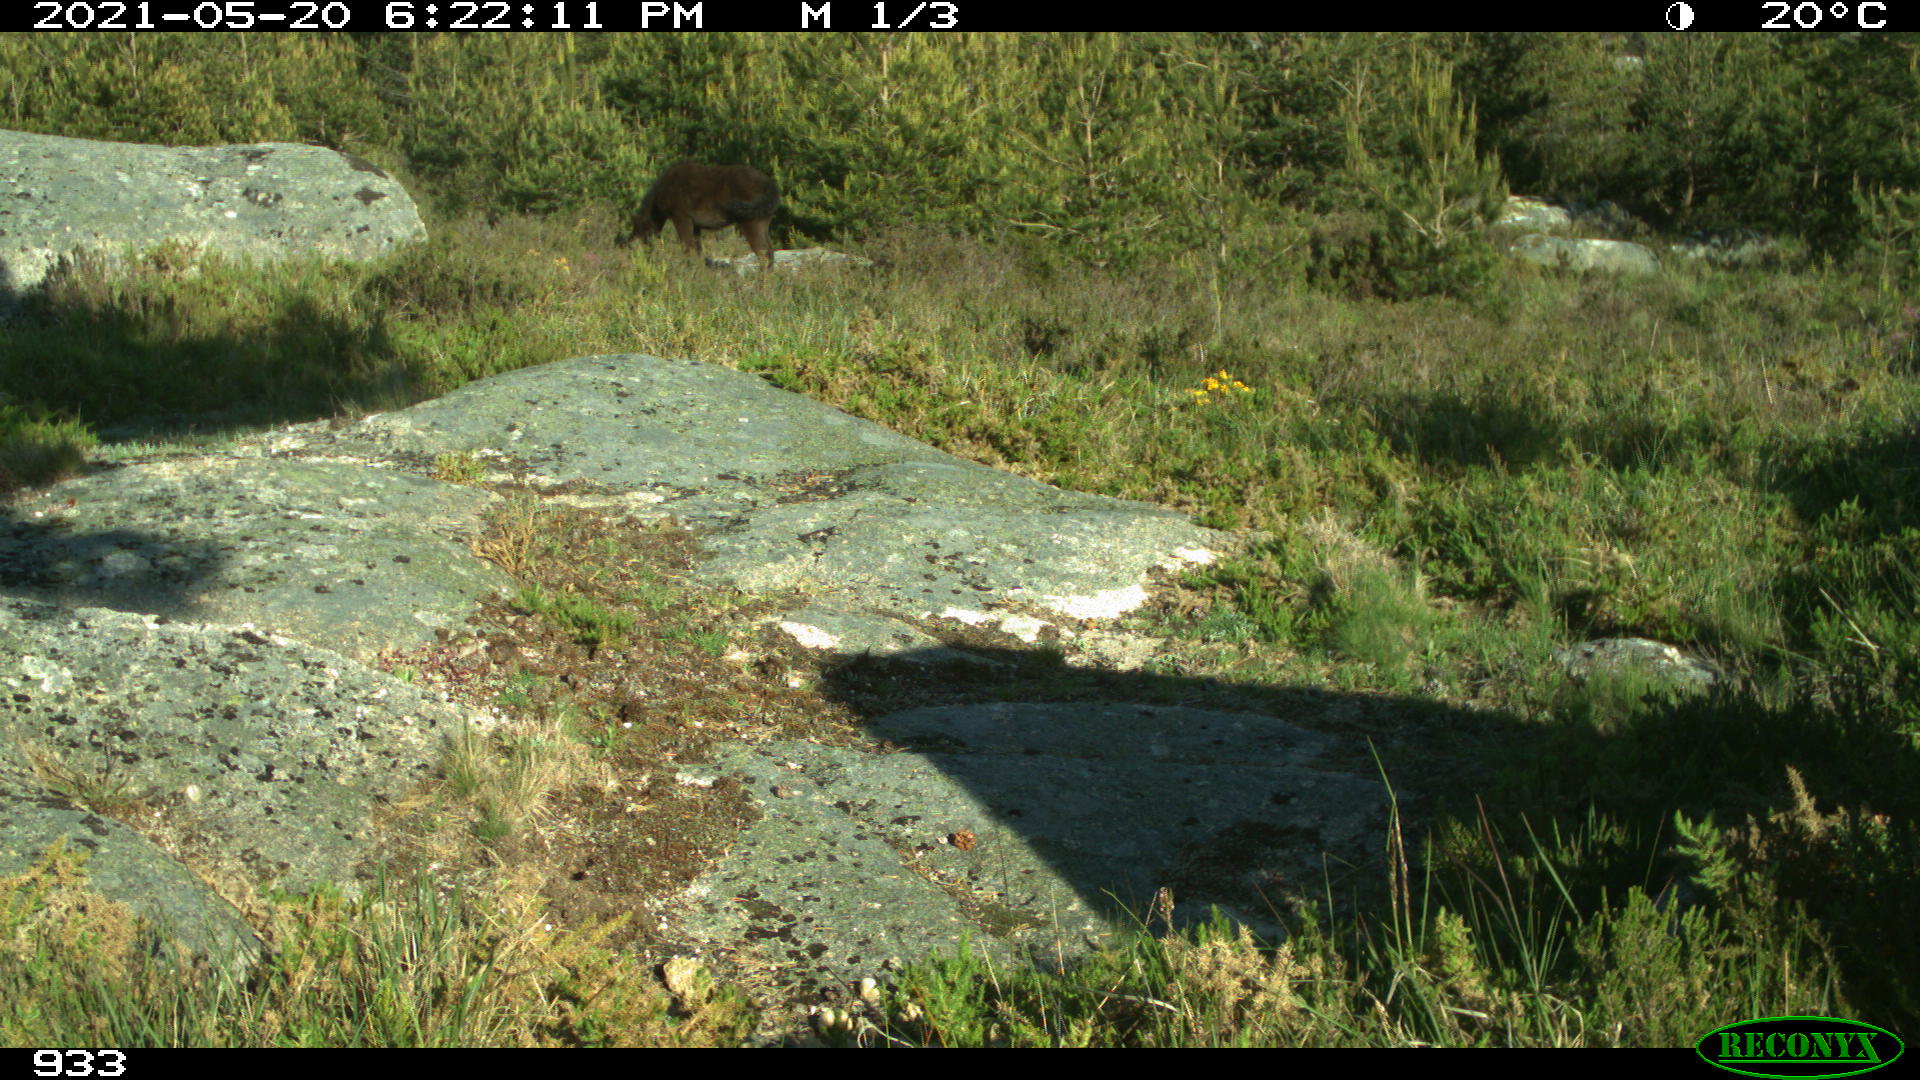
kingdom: Animalia
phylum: Chordata
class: Mammalia
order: Perissodactyla
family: Equidae
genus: Equus
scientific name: Equus caballus
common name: Horse
